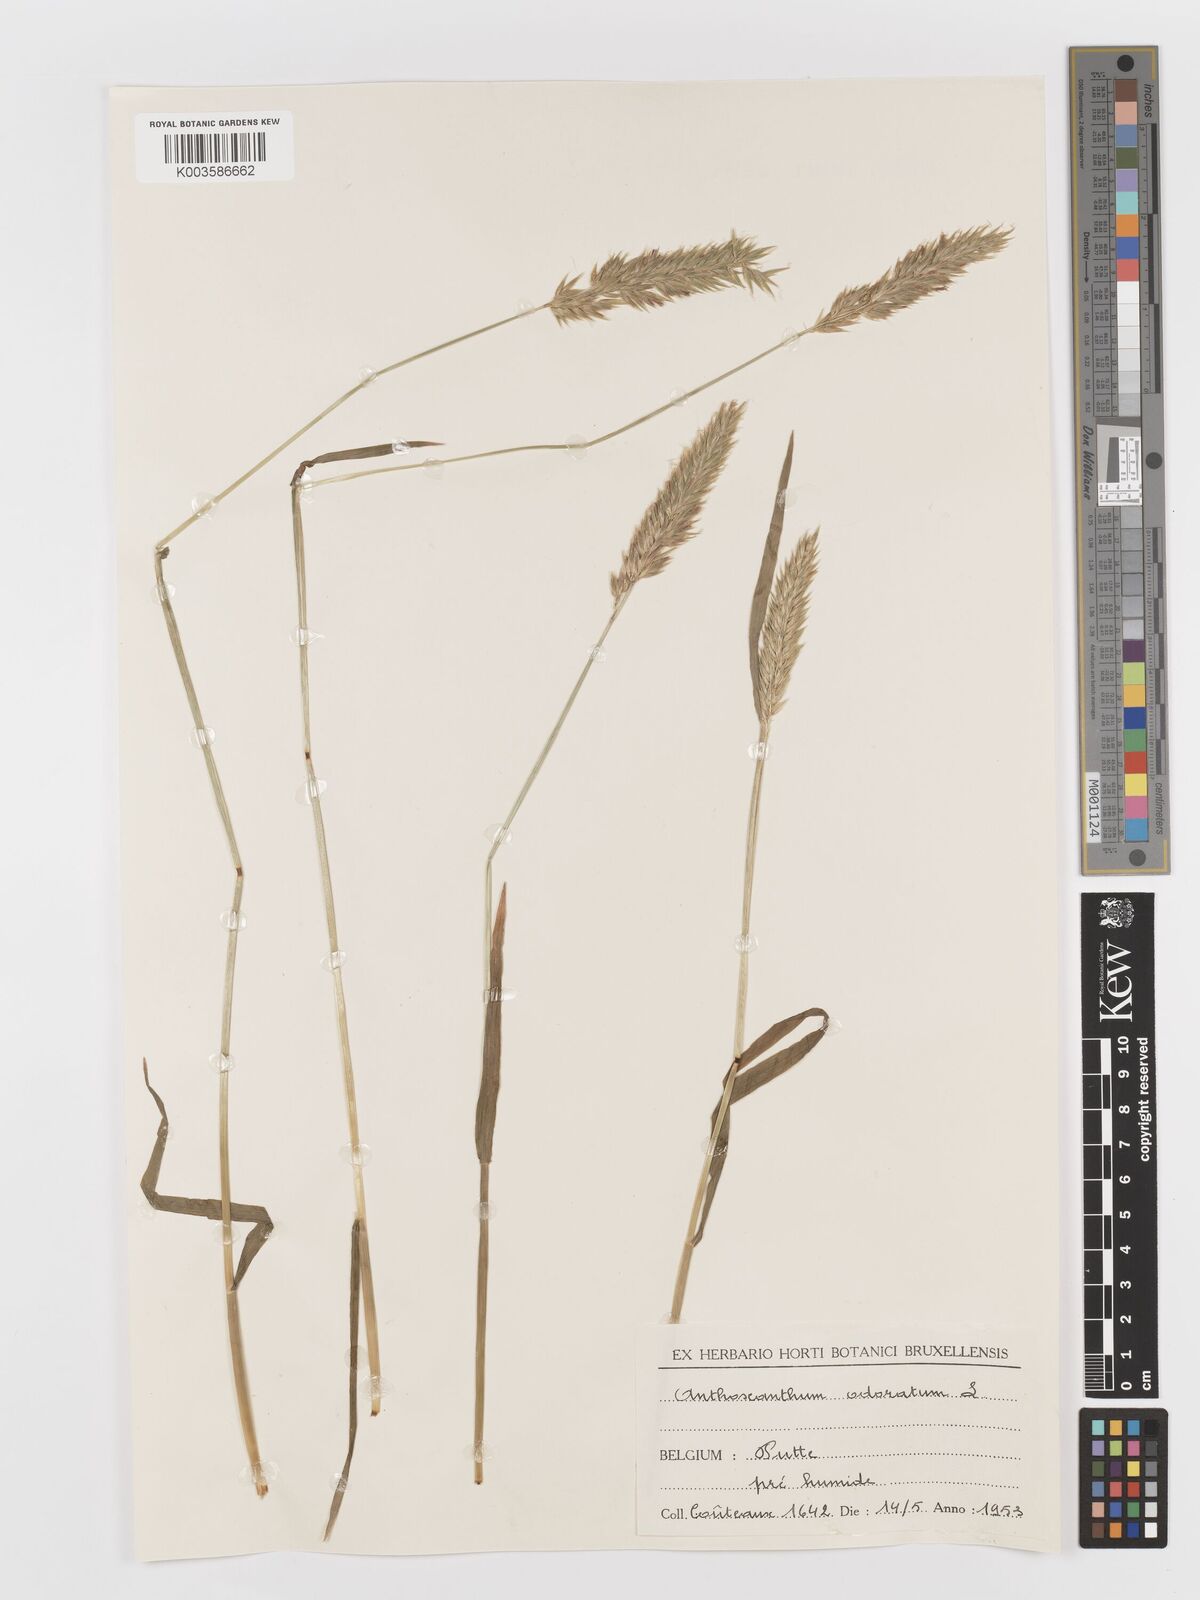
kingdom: Plantae
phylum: Tracheophyta
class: Liliopsida
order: Poales
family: Poaceae
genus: Anthoxanthum
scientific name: Anthoxanthum odoratum
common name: Sweet vernalgrass
